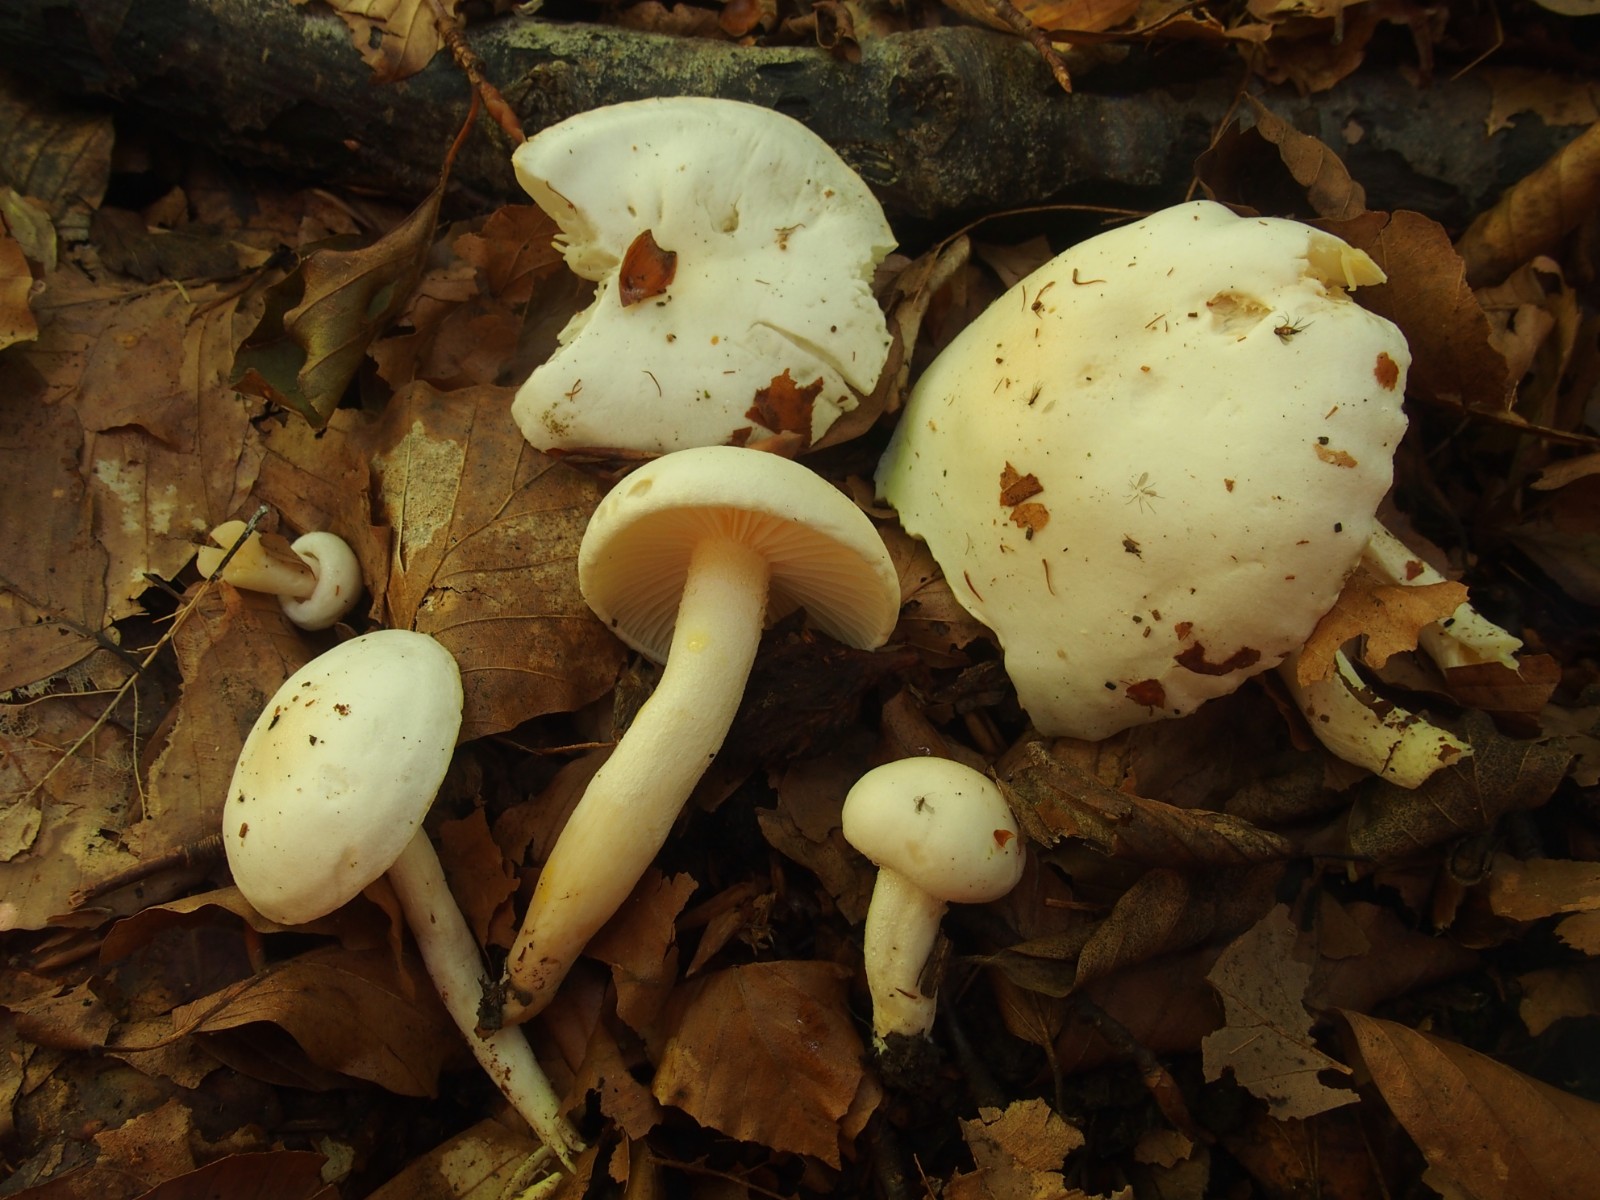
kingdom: Fungi
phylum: Basidiomycota
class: Agaricomycetes
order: Agaricales
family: Hygrophoraceae
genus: Hygrophorus
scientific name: Hygrophorus discoxanthus
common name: ildelugtende sneglehat
